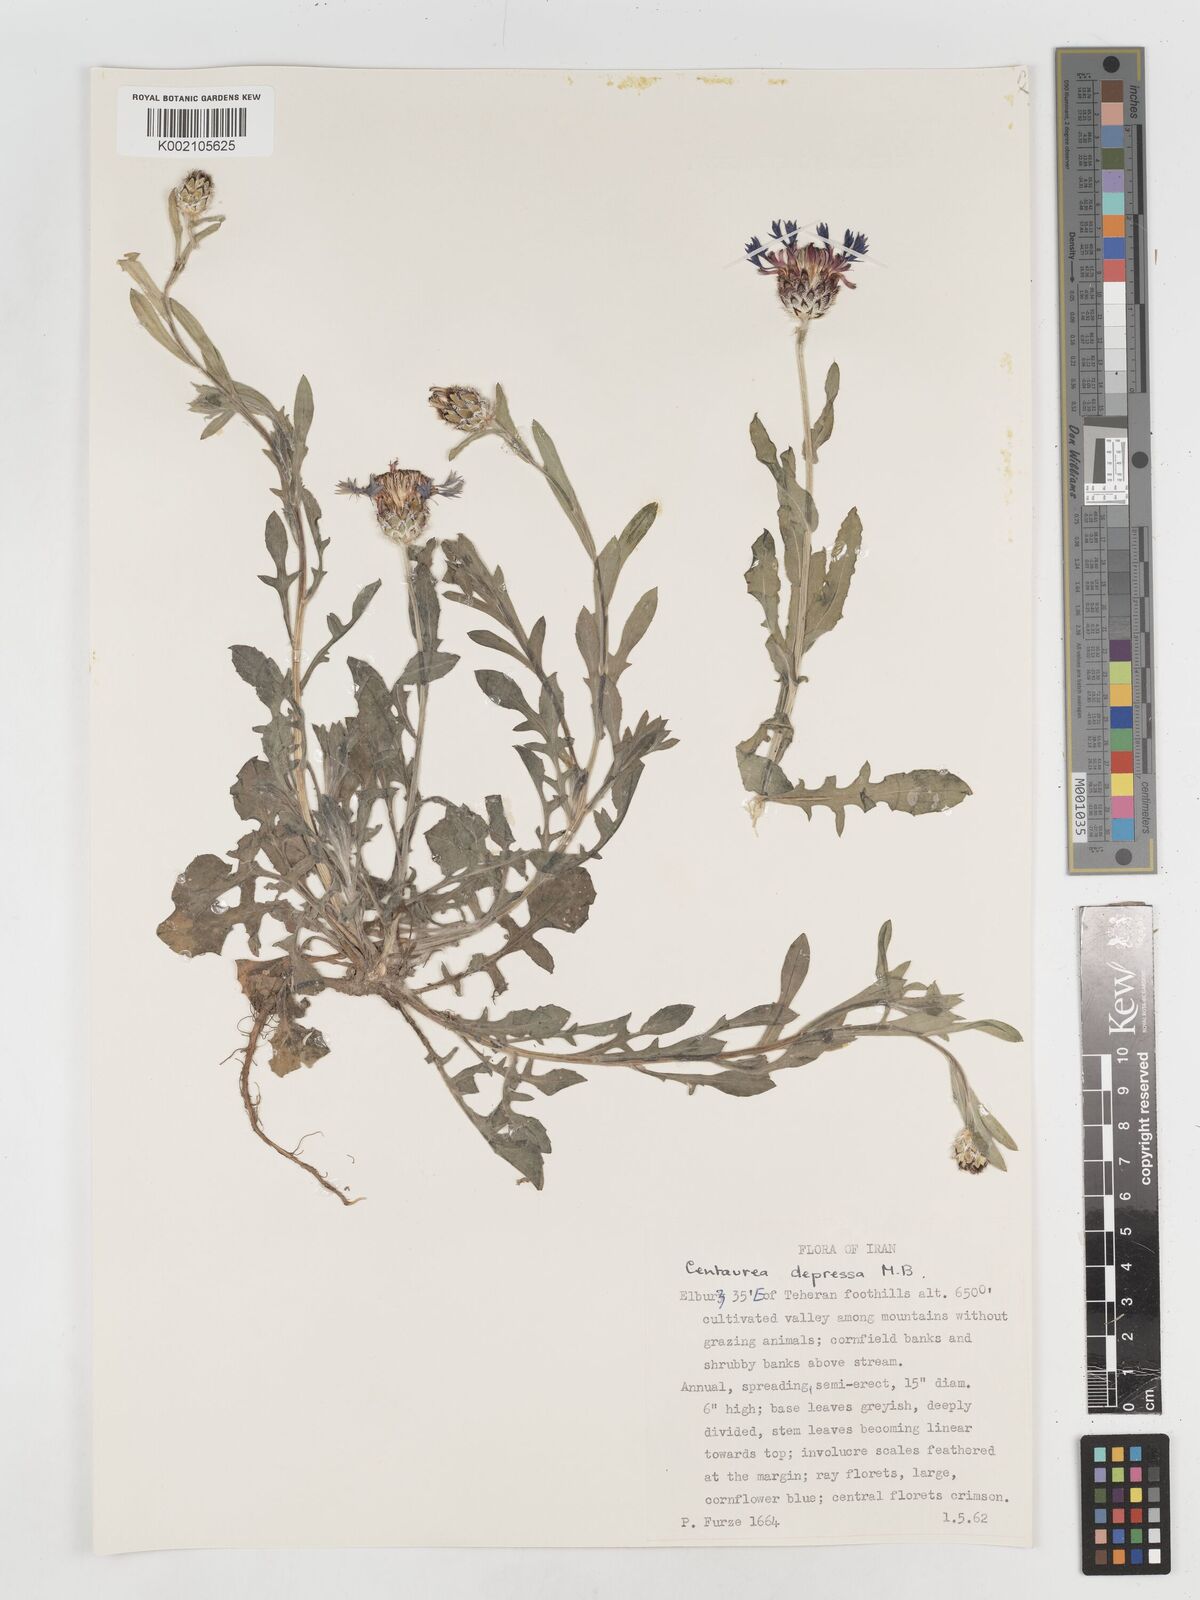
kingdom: Plantae
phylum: Tracheophyta
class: Magnoliopsida
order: Asterales
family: Asteraceae
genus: Centaurea
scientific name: Centaurea depressa
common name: Iranian knapweed
